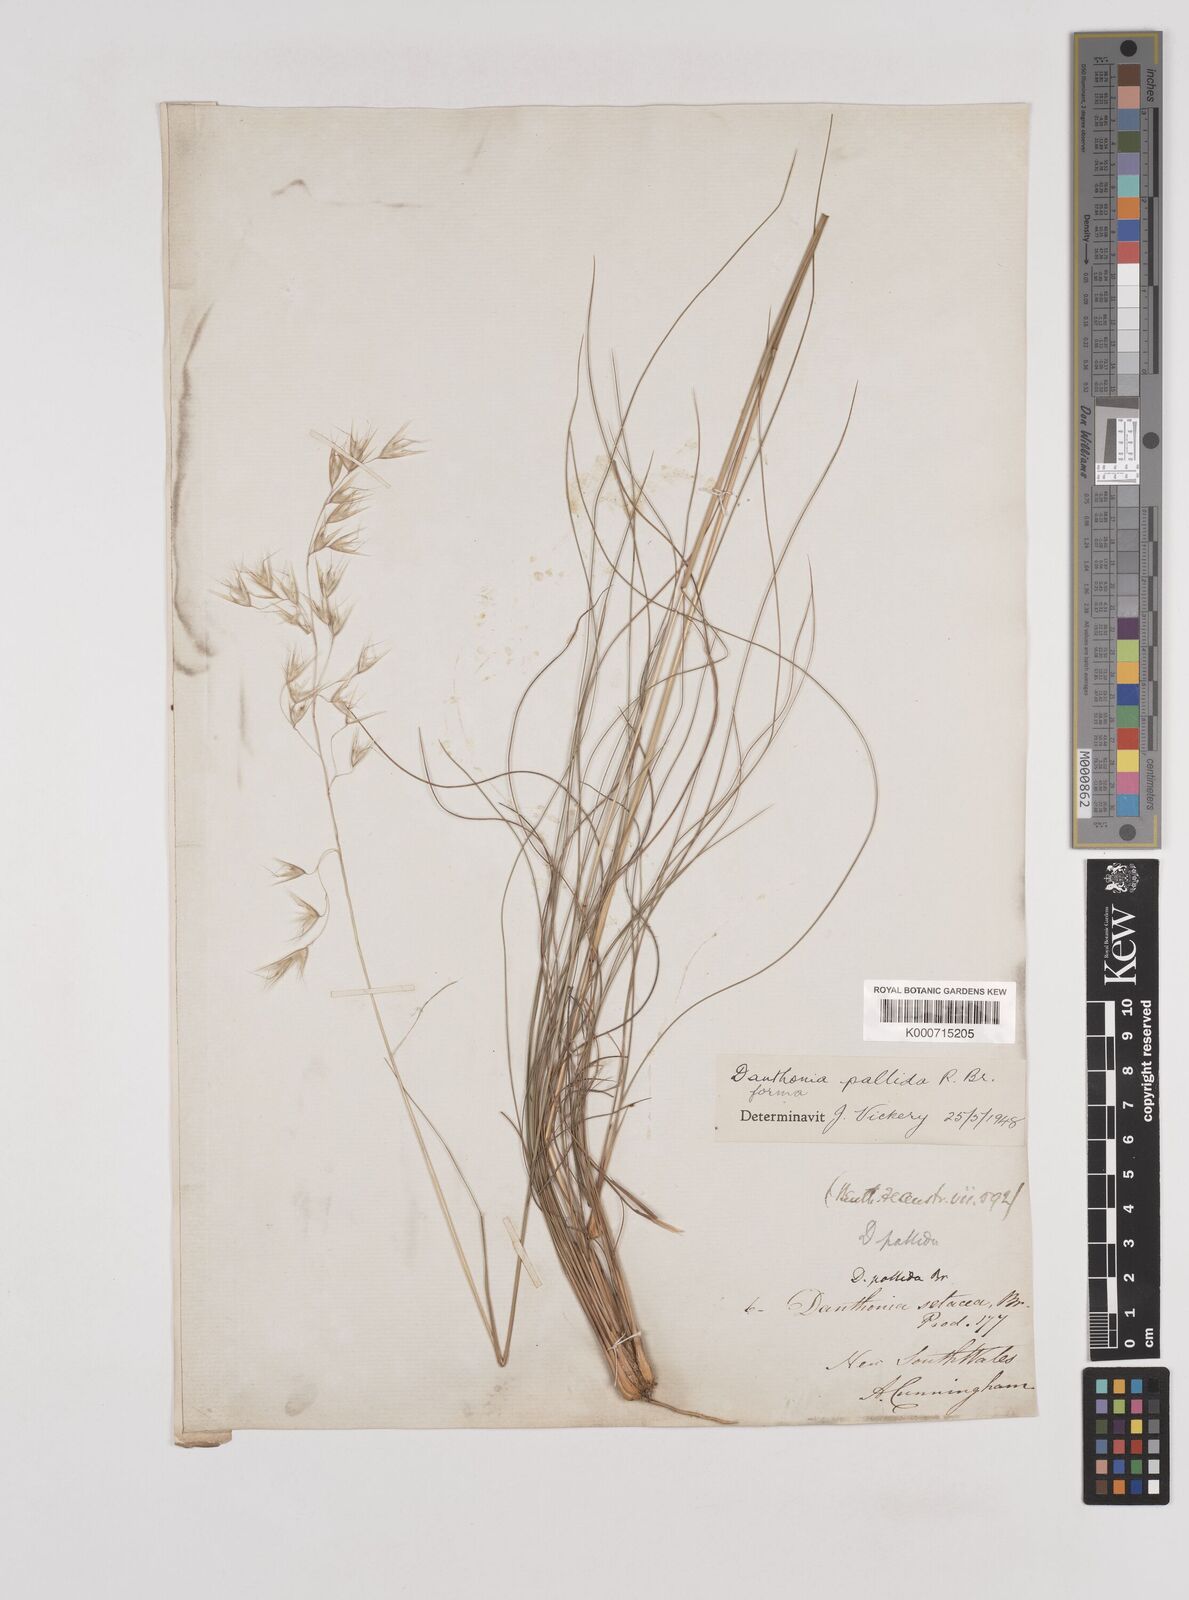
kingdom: Plantae
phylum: Tracheophyta
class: Liliopsida
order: Poales
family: Poaceae
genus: Rytidosperma
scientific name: Rytidosperma
